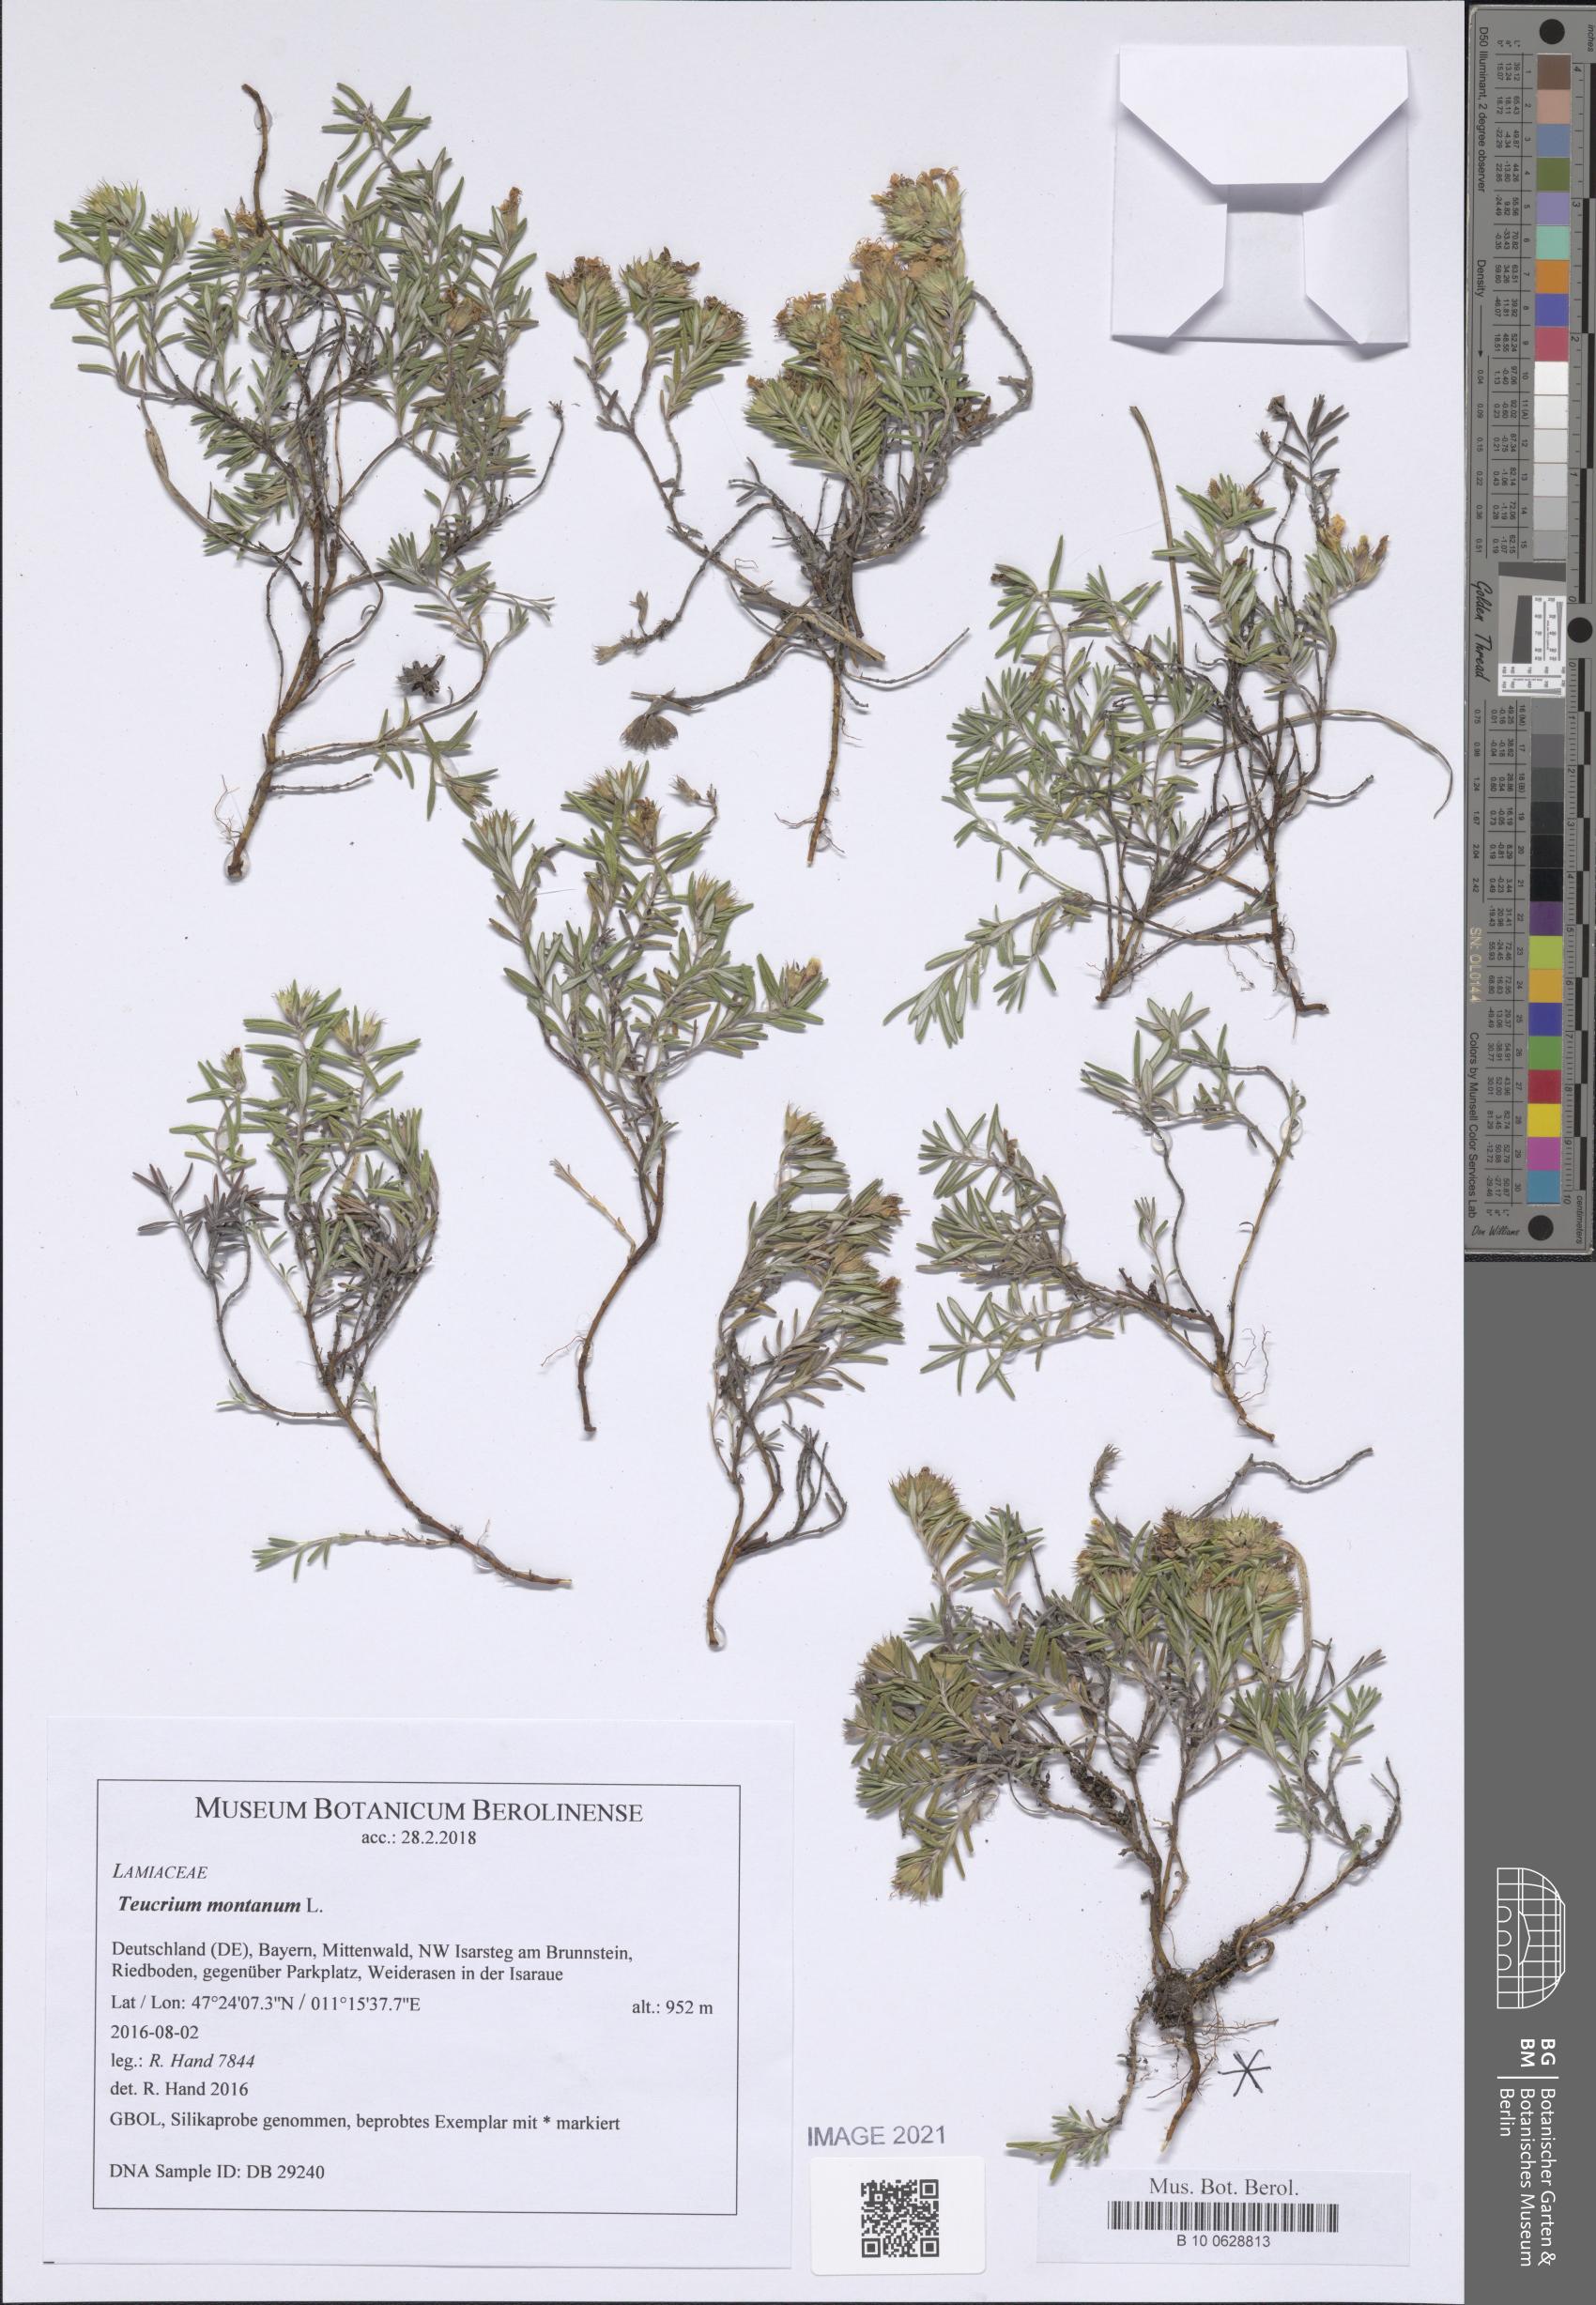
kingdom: Plantae
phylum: Tracheophyta
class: Magnoliopsida
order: Lamiales
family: Lamiaceae
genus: Teucrium
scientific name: Teucrium montanum
